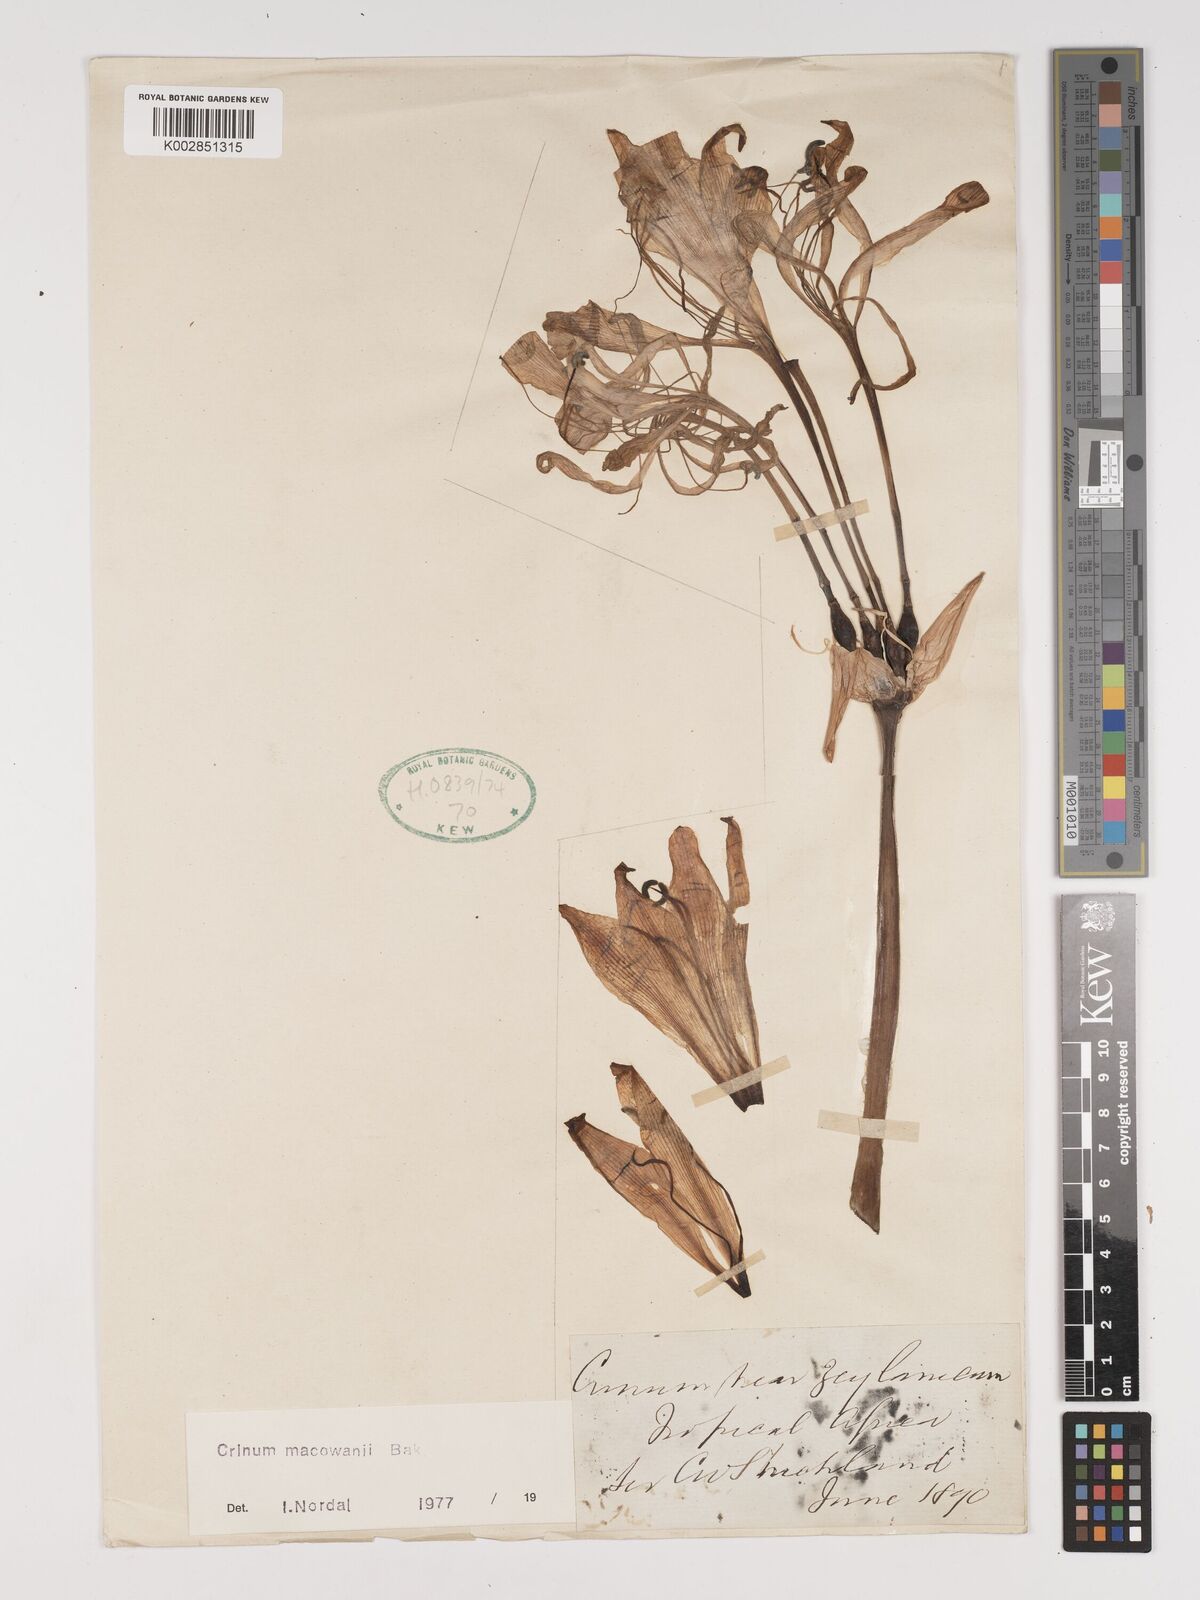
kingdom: Plantae
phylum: Tracheophyta
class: Liliopsida
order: Asparagales
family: Amaryllidaceae
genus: Crinum
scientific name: Crinum macowanii
